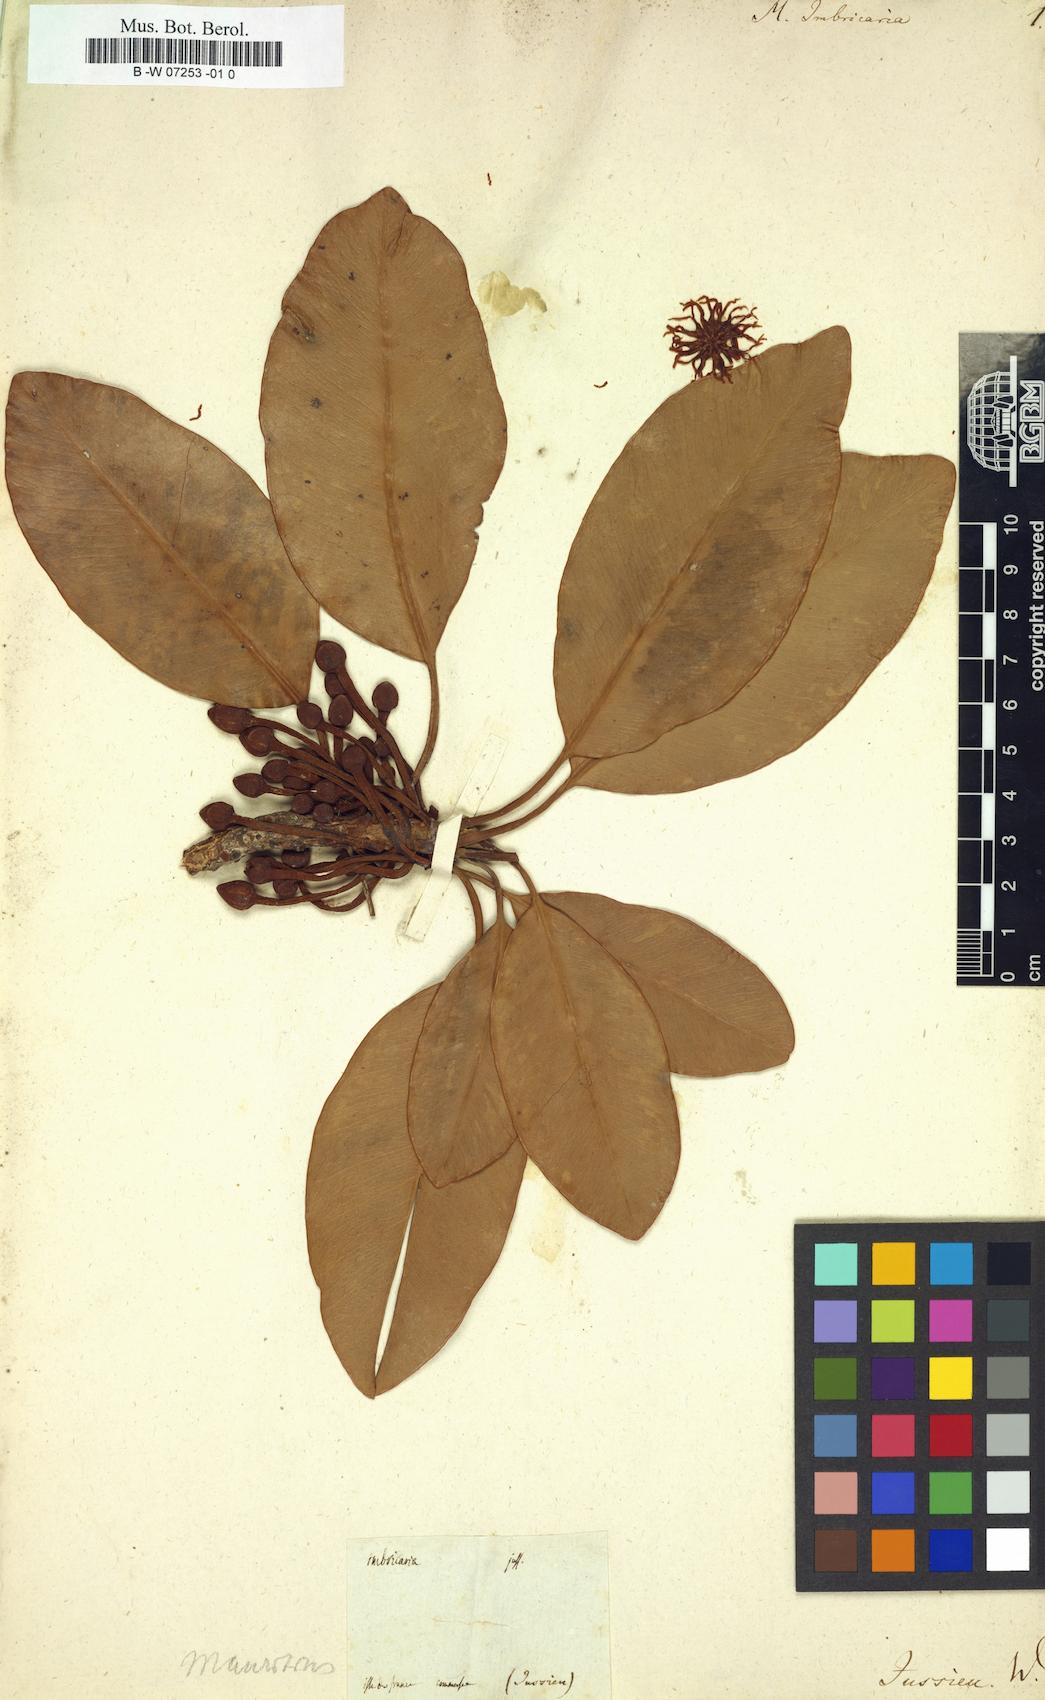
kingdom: Plantae
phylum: Tracheophyta
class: Magnoliopsida
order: Ericales
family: Sapotaceae
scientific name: Sapotaceae
